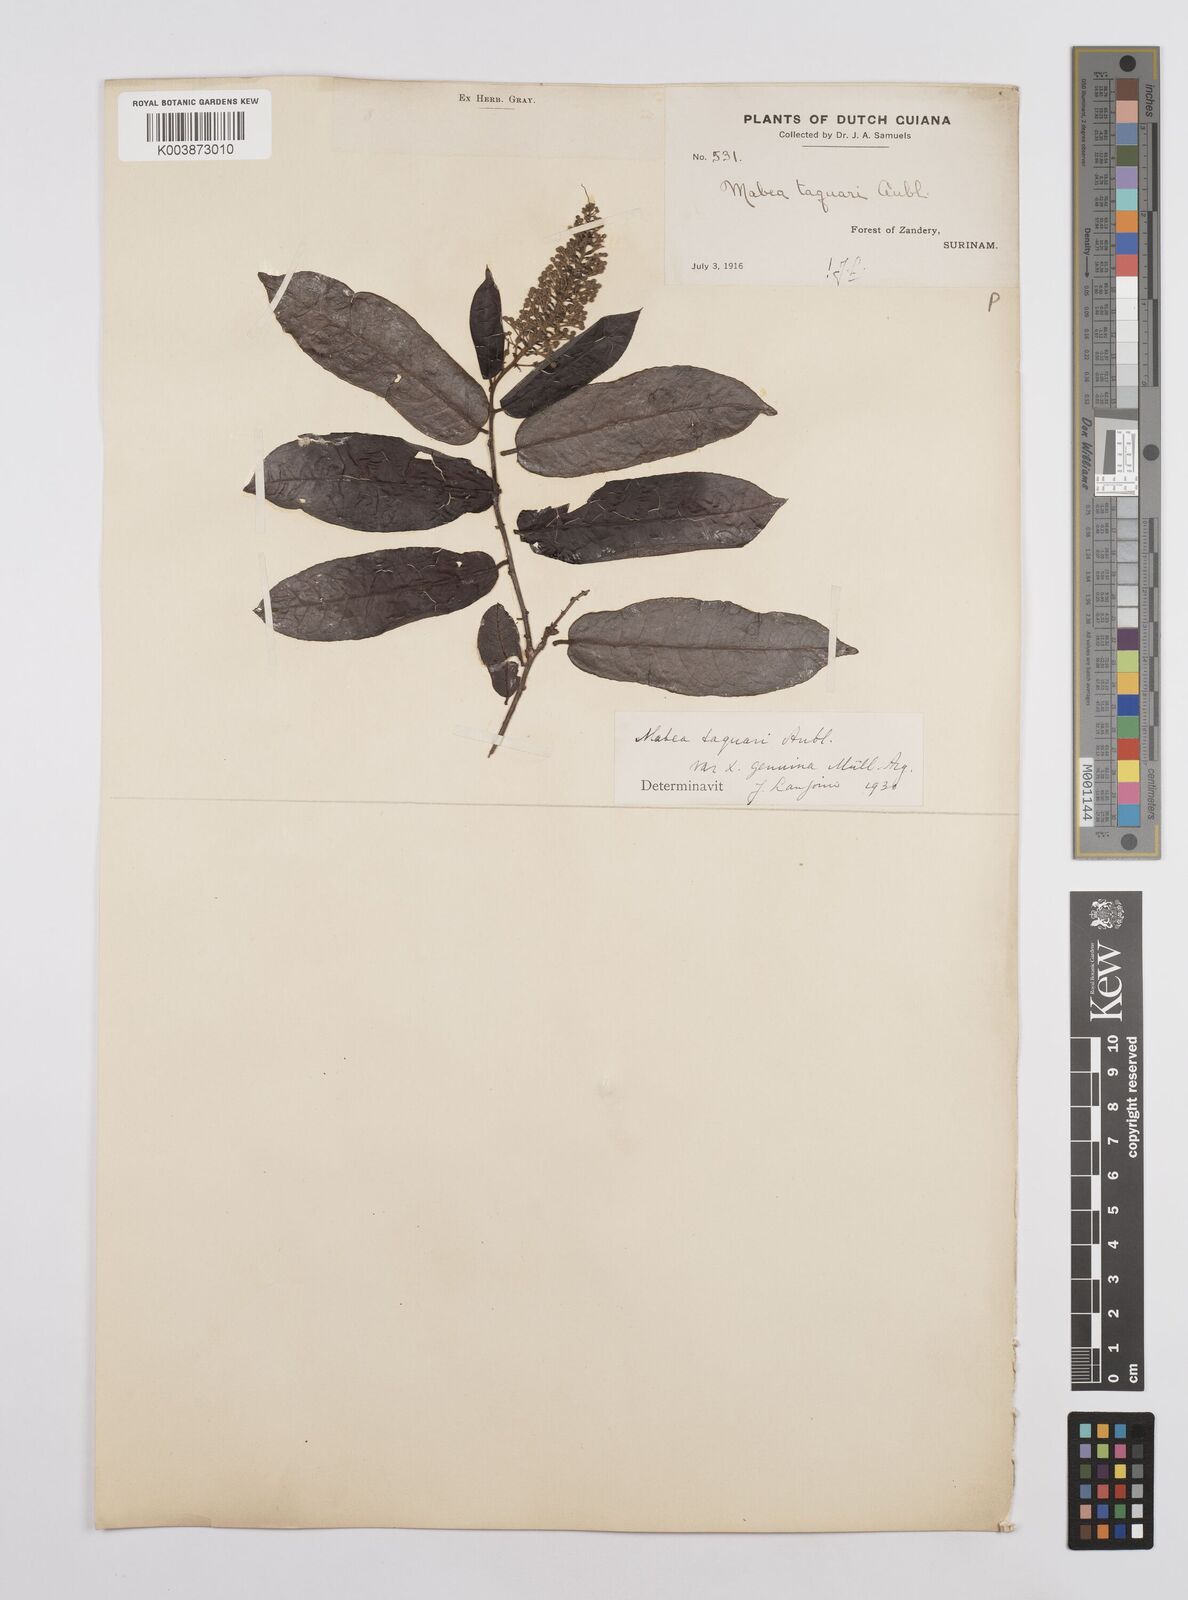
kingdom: Plantae
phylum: Tracheophyta
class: Magnoliopsida
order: Malpighiales
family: Euphorbiaceae
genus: Mabea
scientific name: Mabea taquari
